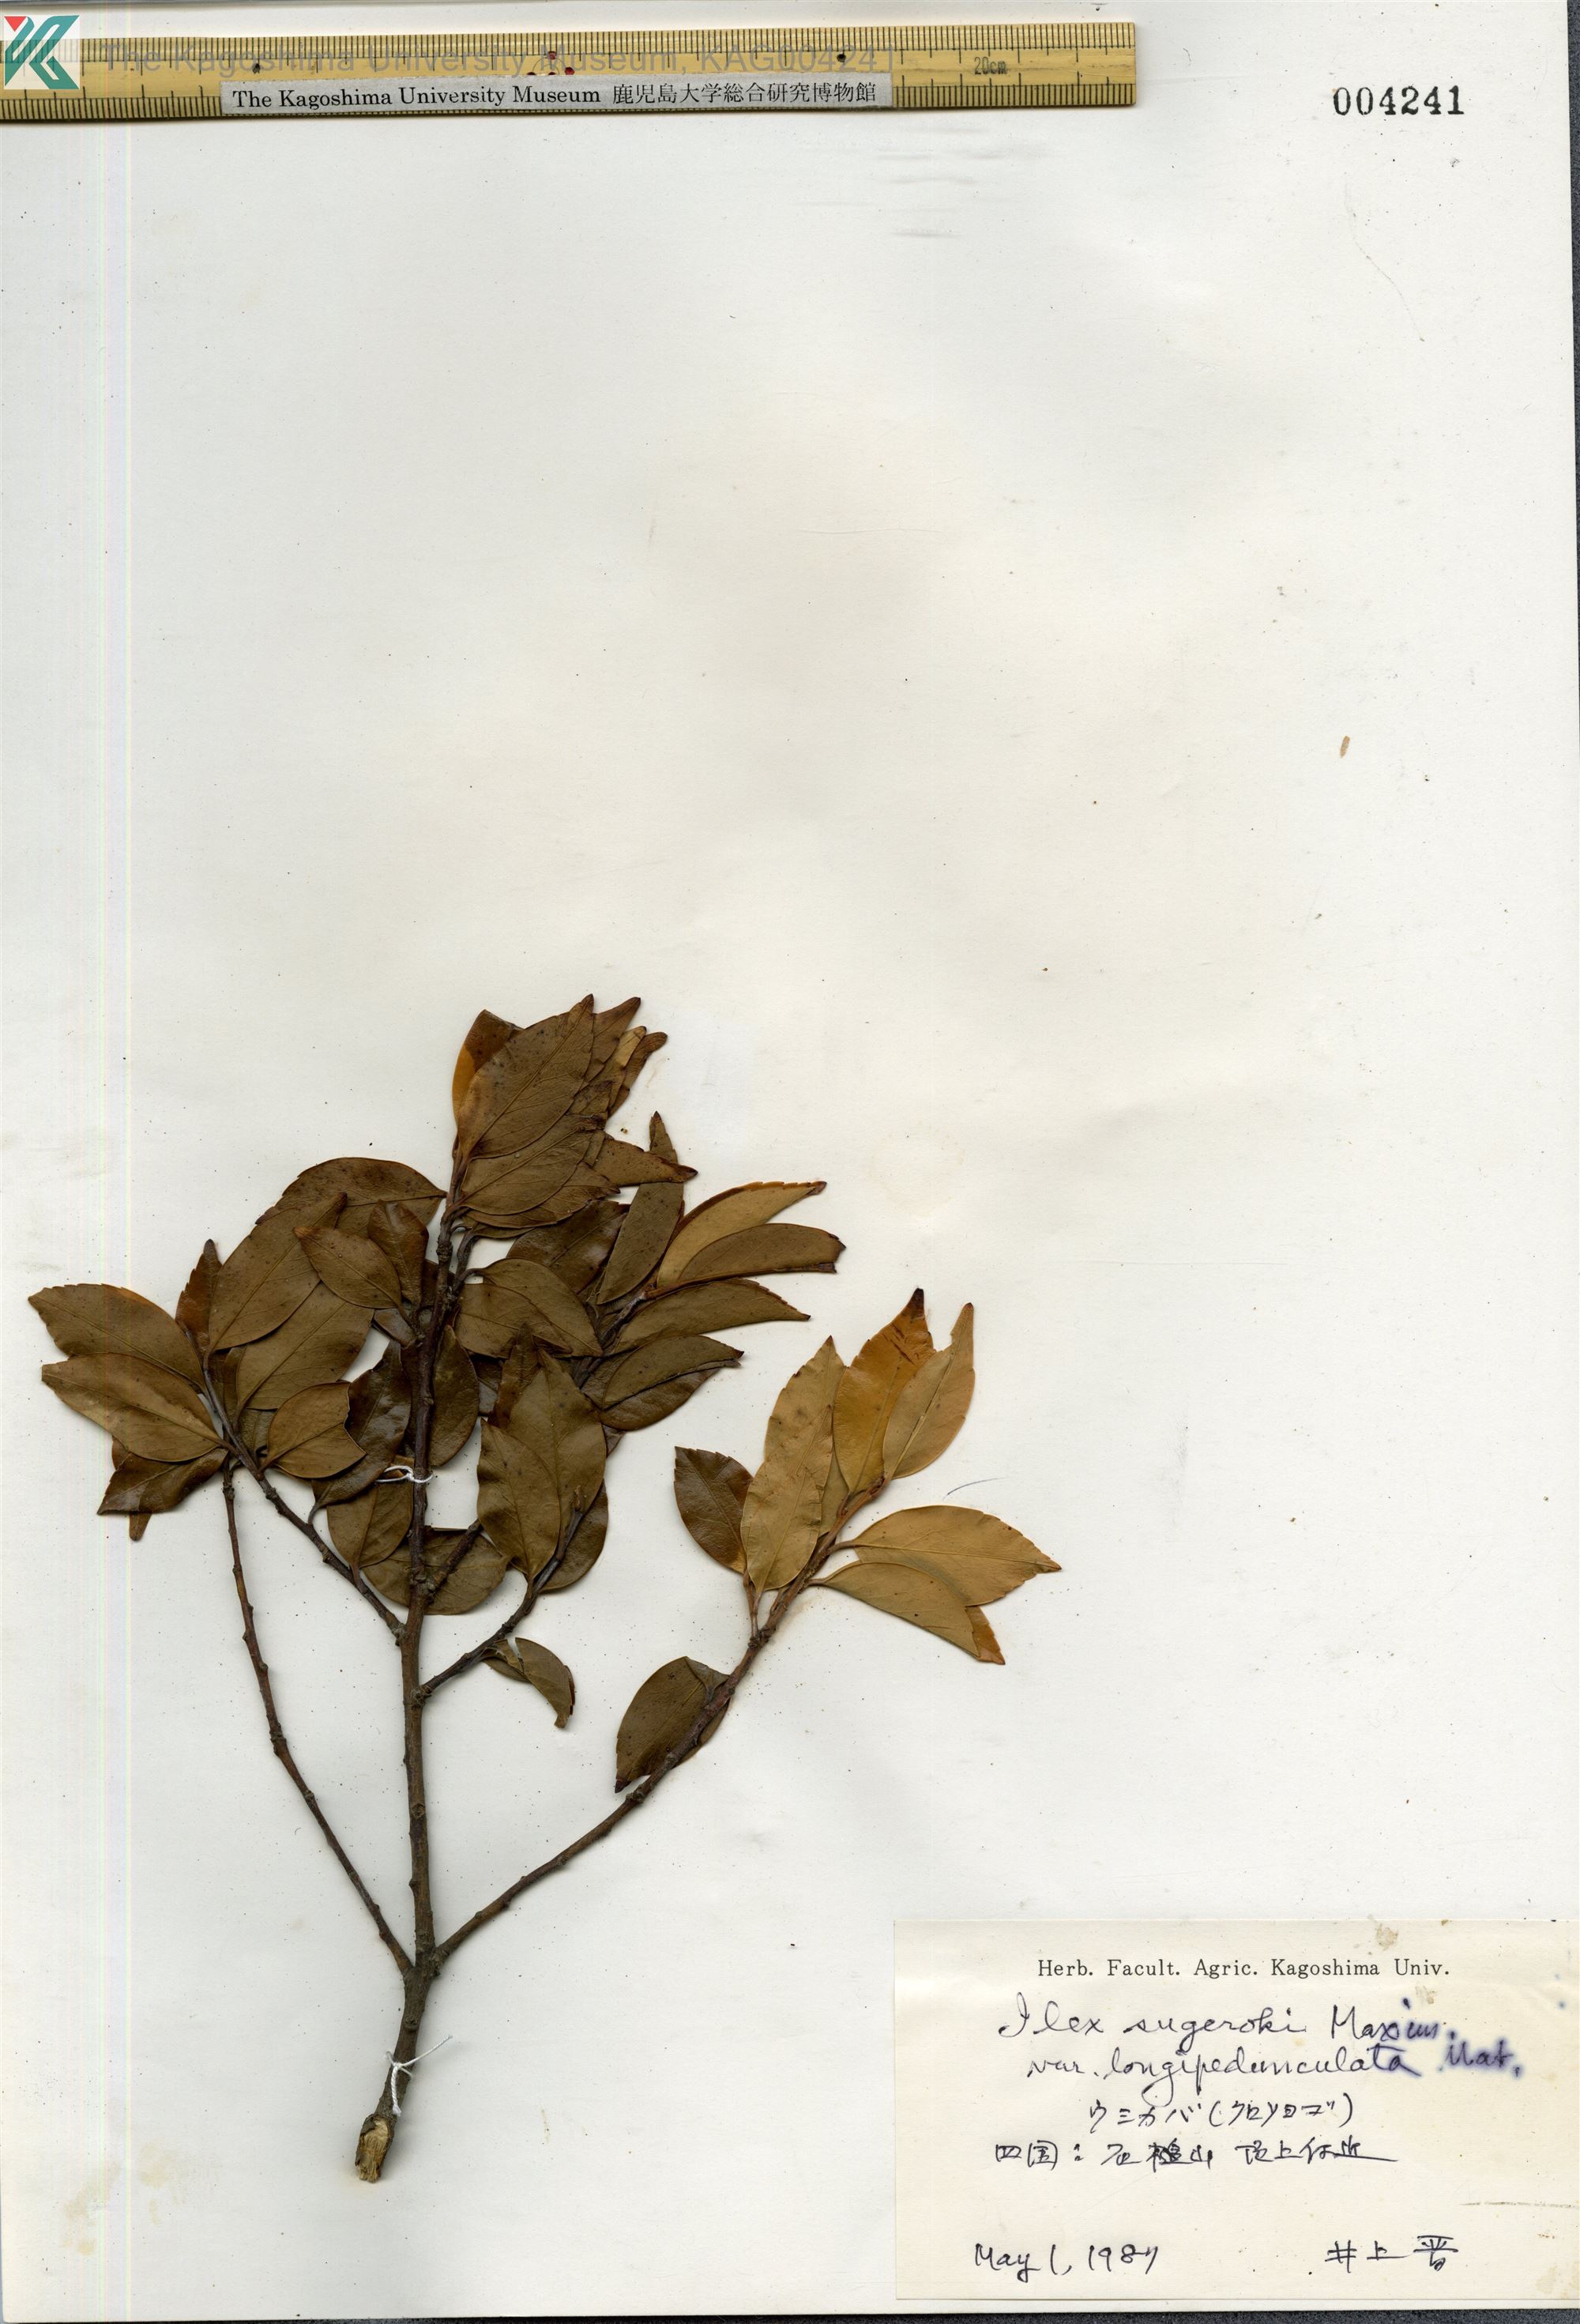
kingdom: Plantae
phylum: Tracheophyta
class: Magnoliopsida
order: Aquifoliales
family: Aquifoliaceae
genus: Ilex
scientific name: Ilex sugerokii
